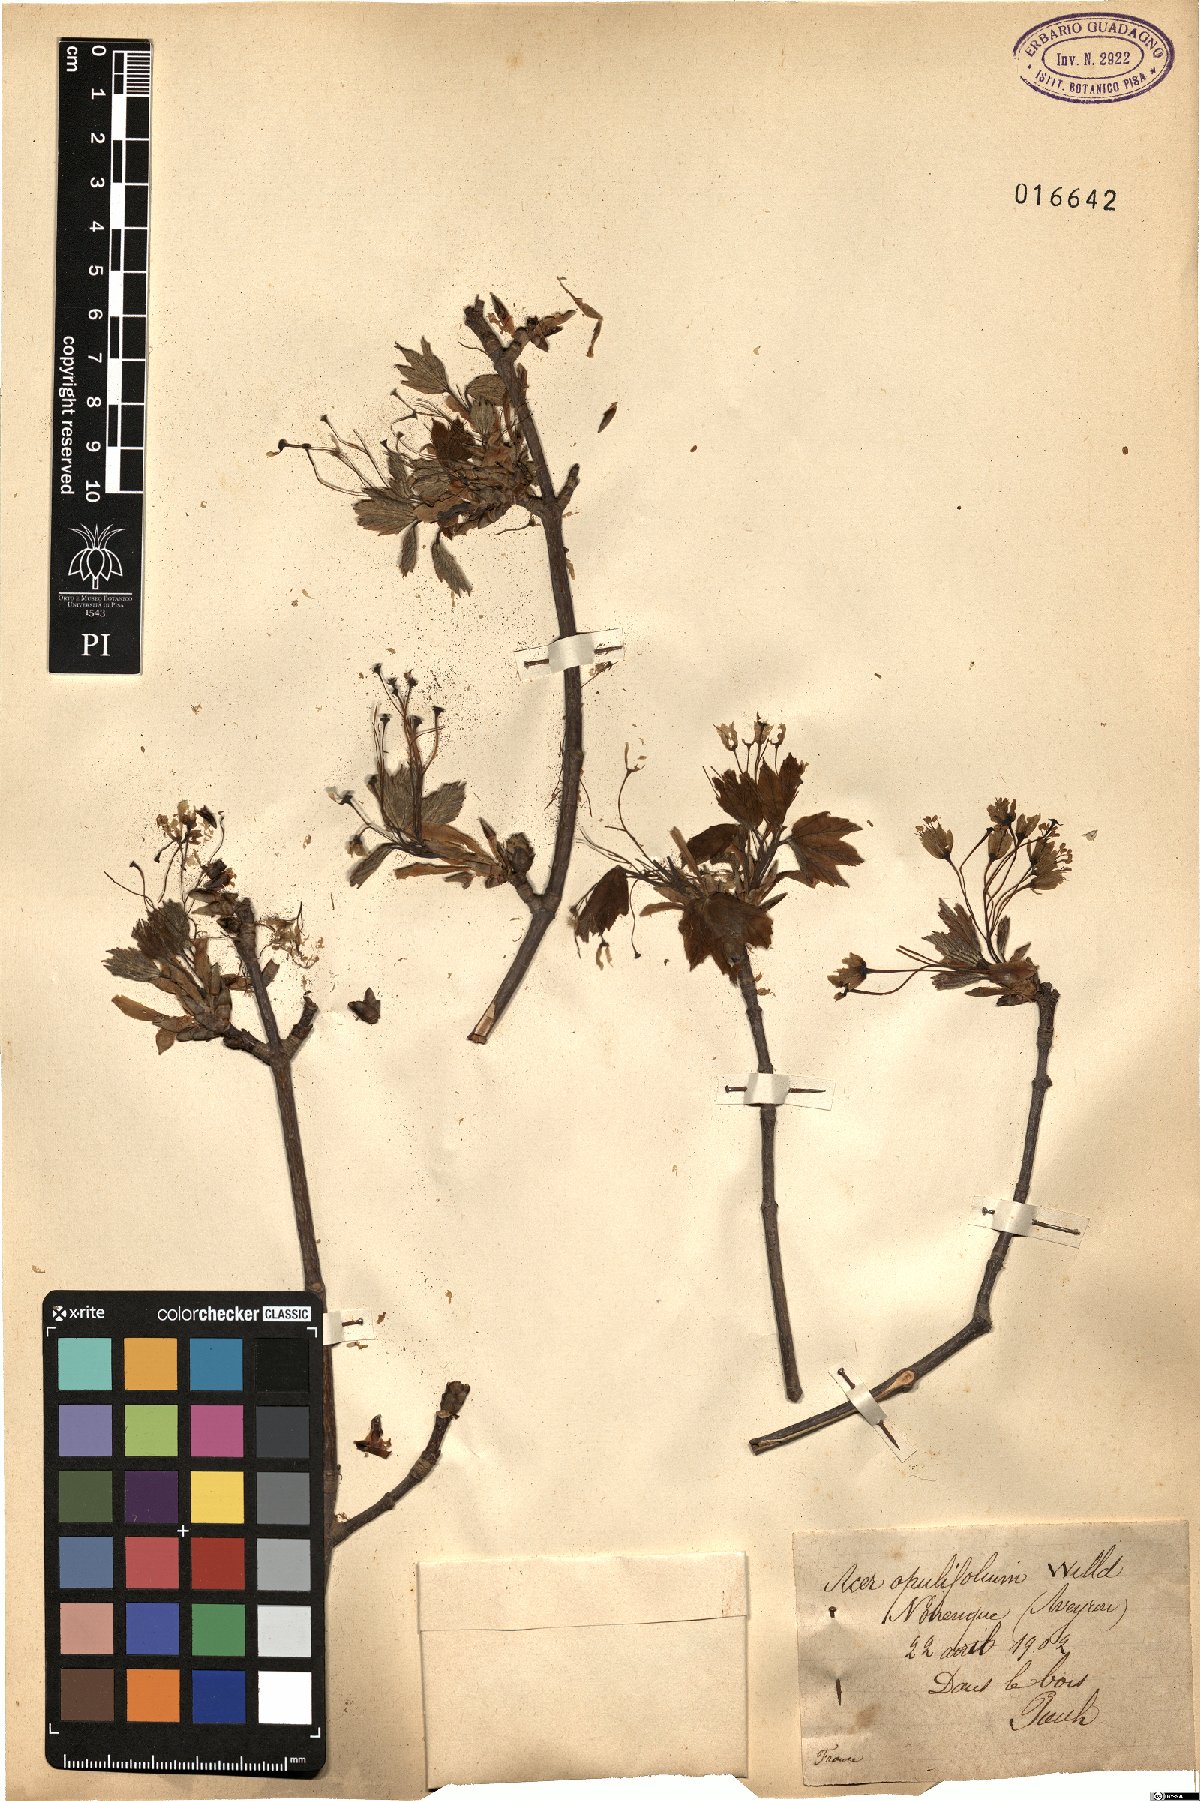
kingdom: Plantae
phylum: Tracheophyta
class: Magnoliopsida
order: Sapindales
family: Sapindaceae
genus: Acer
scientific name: Acer opalus
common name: Italian maple
